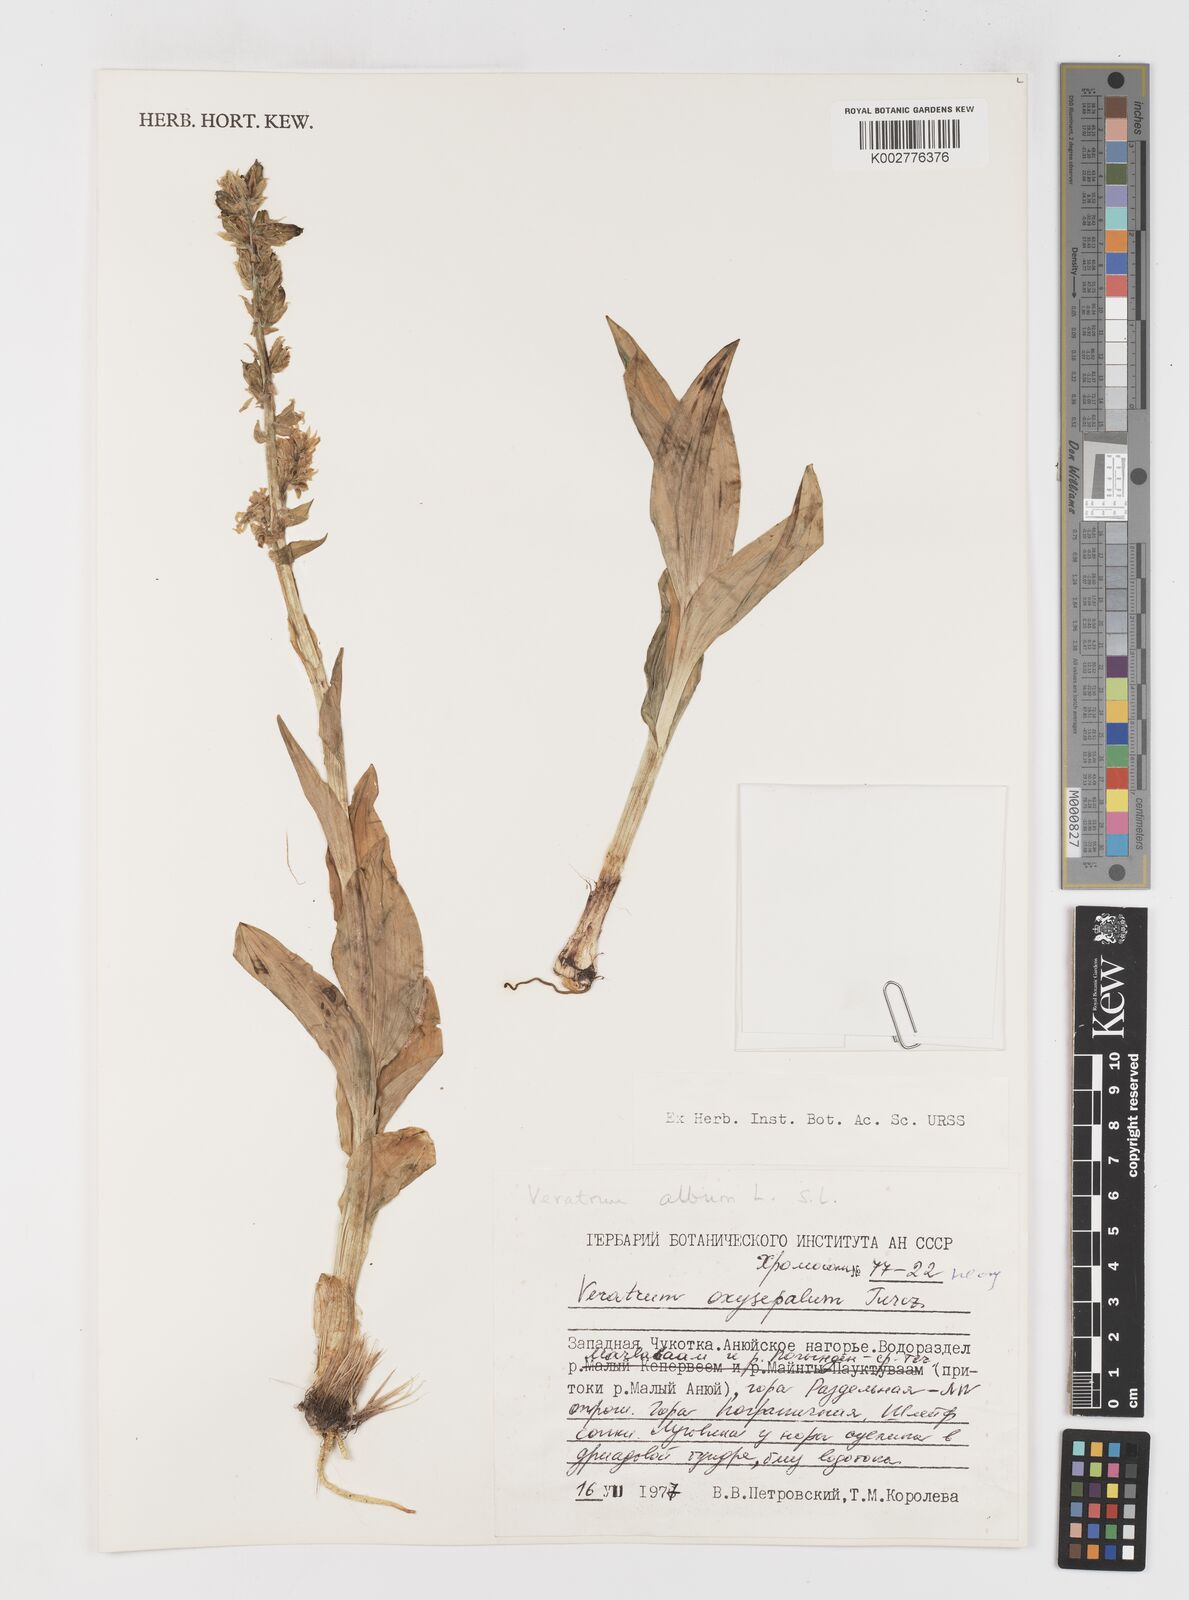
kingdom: Plantae
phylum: Tracheophyta
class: Liliopsida
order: Liliales
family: Melanthiaceae
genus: Veratrum
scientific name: Veratrum album
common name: White veratrum
